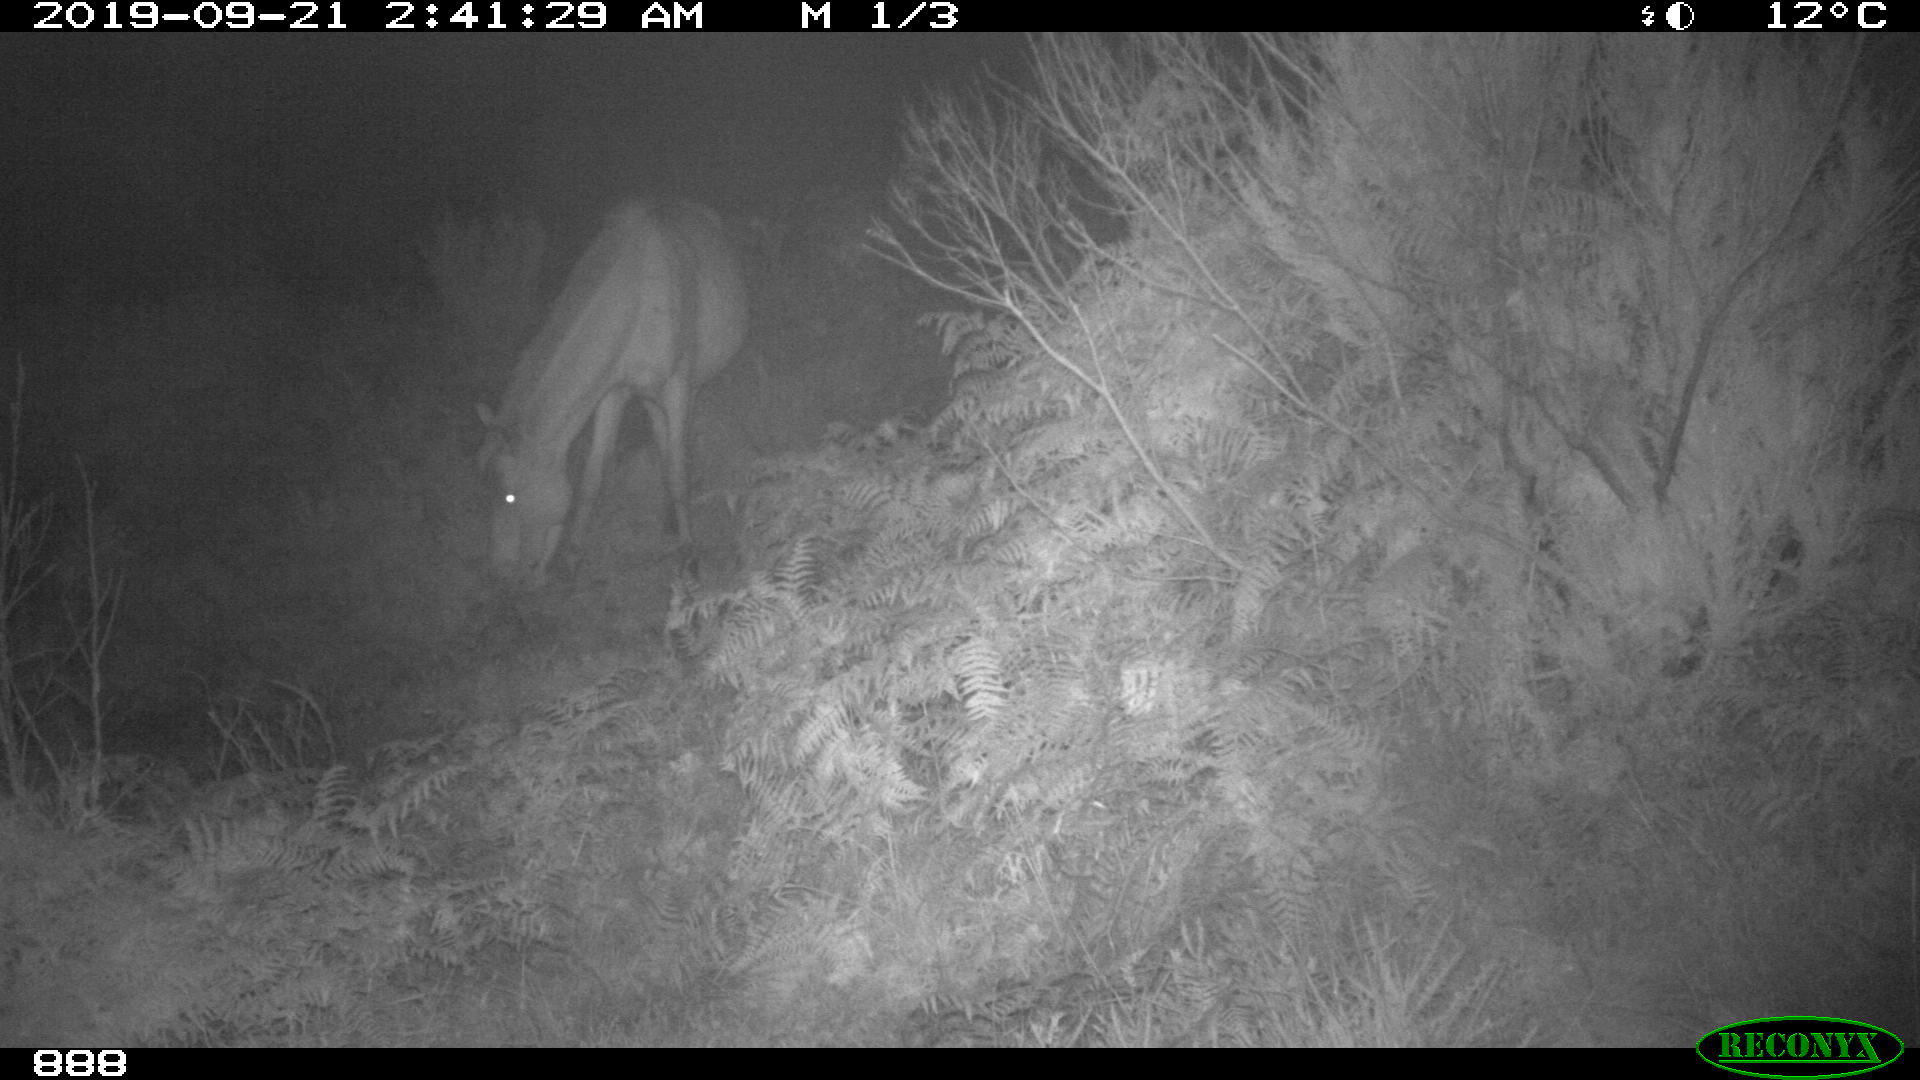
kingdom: Animalia
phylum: Chordata
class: Mammalia
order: Perissodactyla
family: Equidae
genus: Equus
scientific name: Equus caballus
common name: Horse
